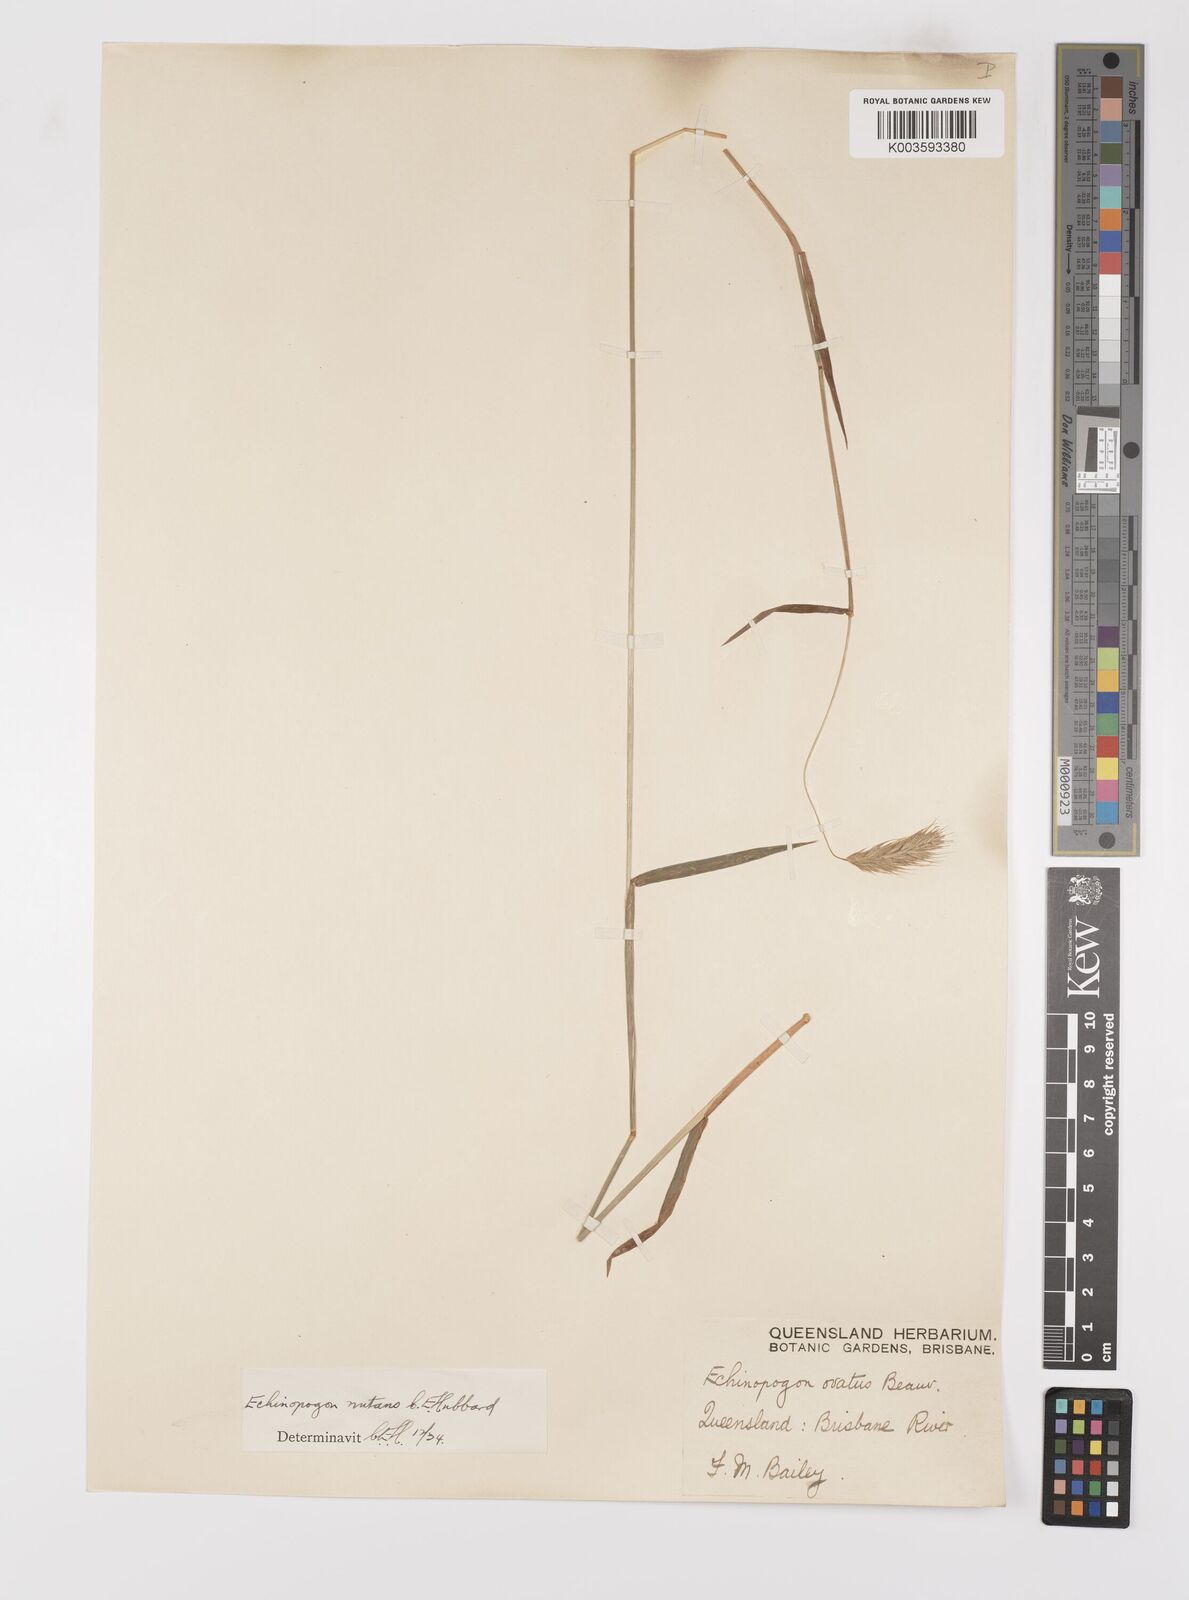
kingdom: Plantae
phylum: Tracheophyta
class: Liliopsida
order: Poales
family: Poaceae
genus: Echinopogon
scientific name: Echinopogon nutans
